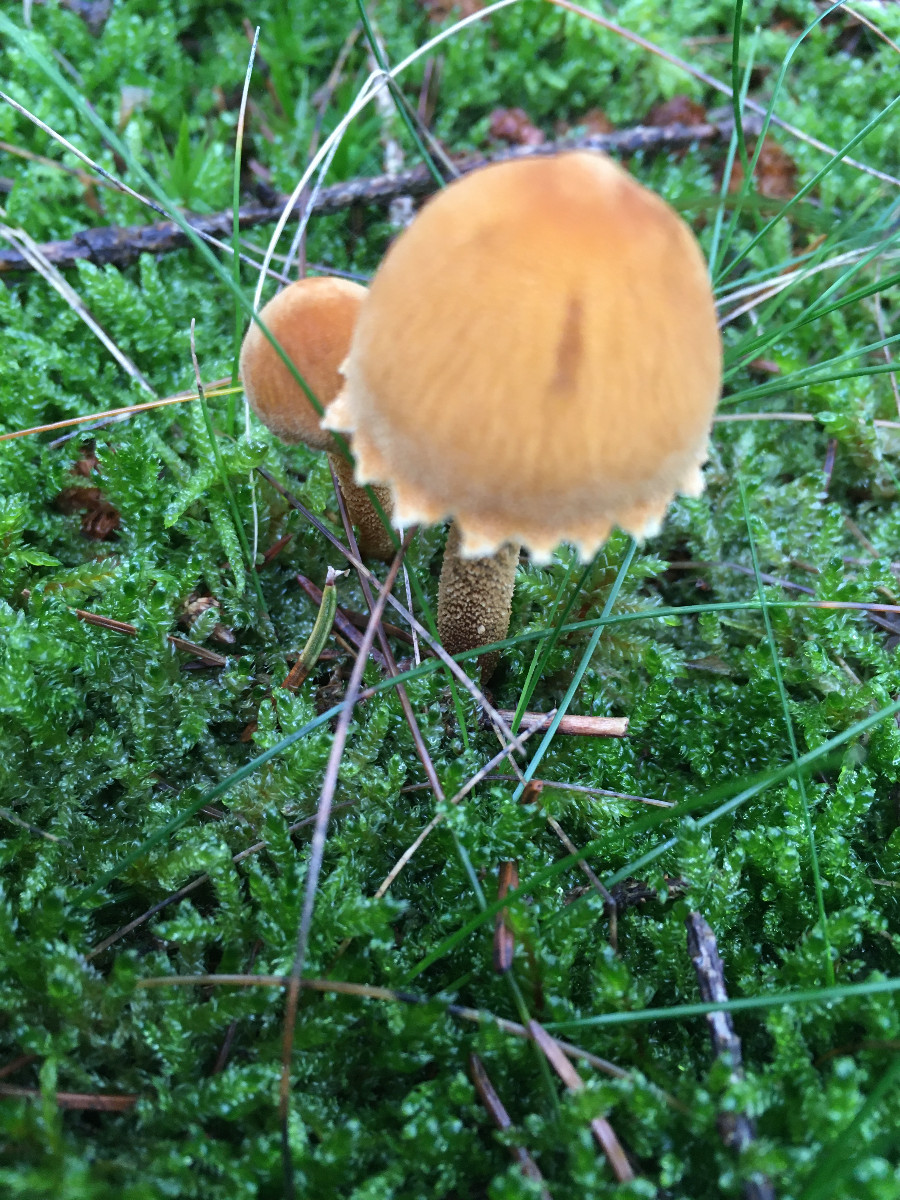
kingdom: Fungi
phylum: Basidiomycota
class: Agaricomycetes
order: Agaricales
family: Tricholomataceae
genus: Cystoderma
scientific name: Cystoderma amianthinum
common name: okkergul grynhat
